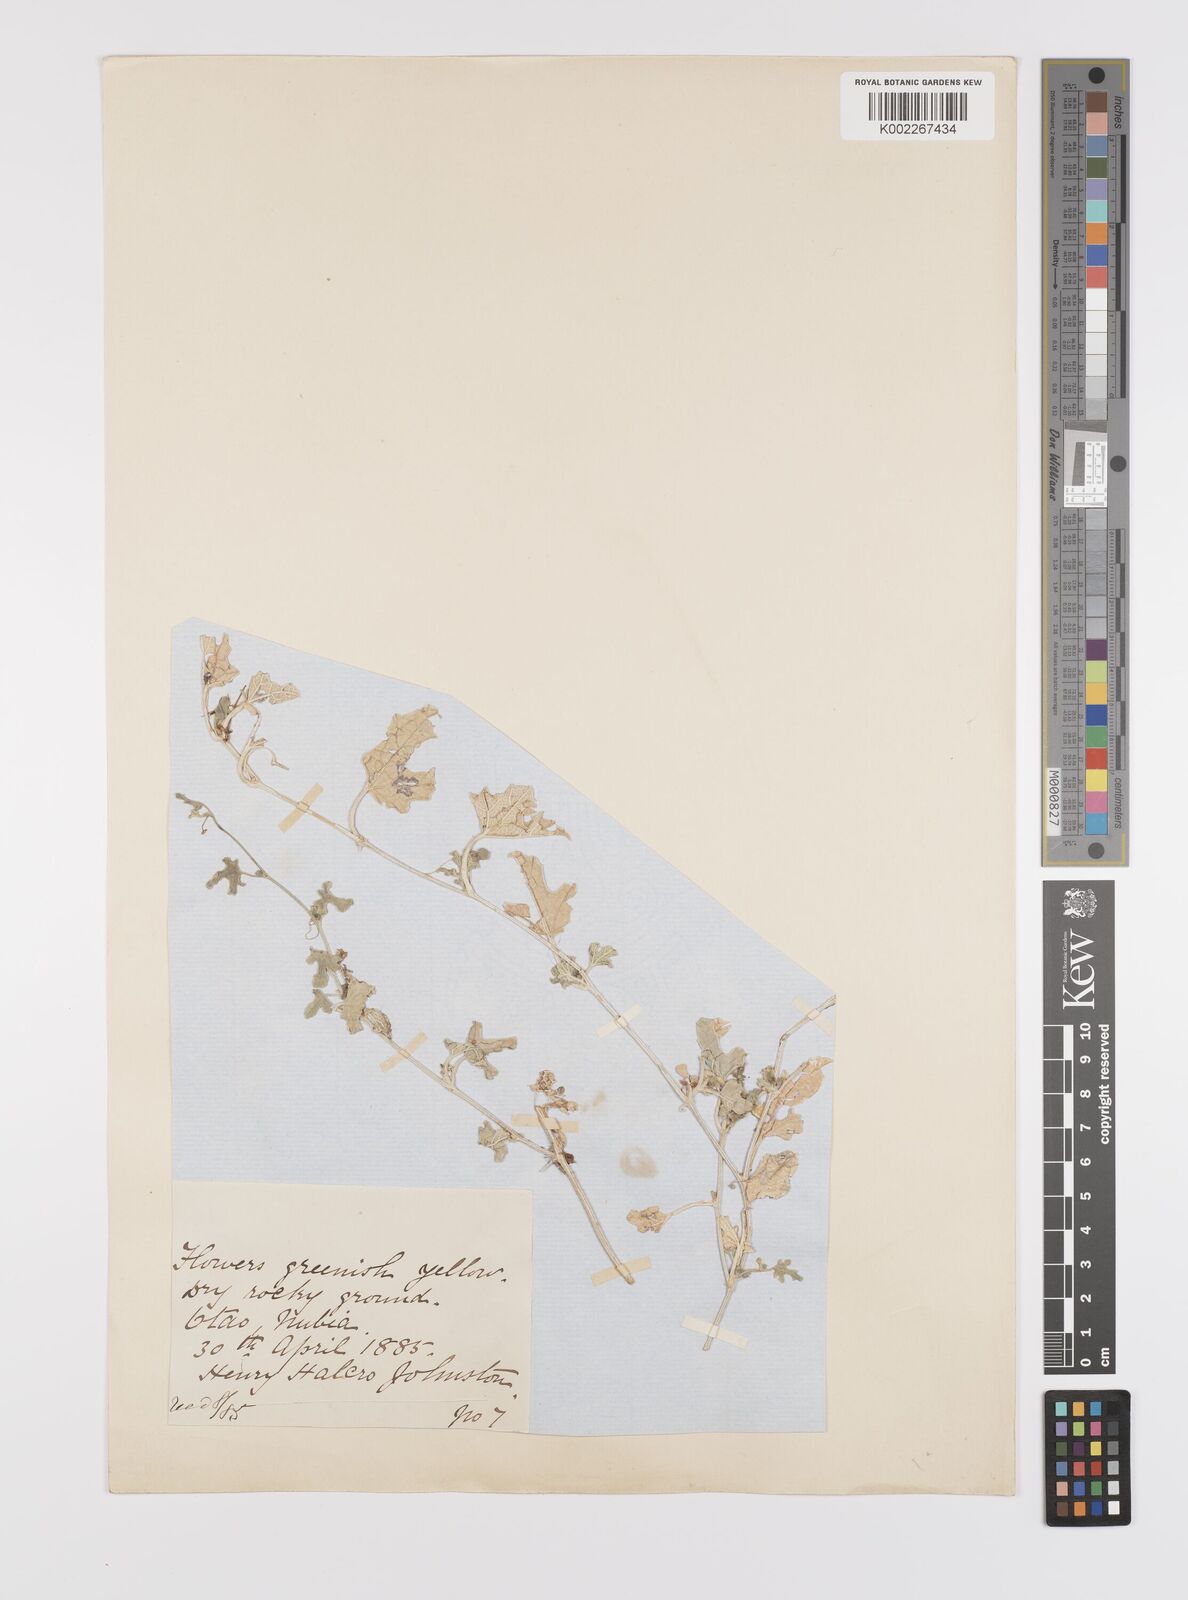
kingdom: Plantae
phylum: Tracheophyta
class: Magnoliopsida
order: Cucurbitales
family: Cucurbitaceae
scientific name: Cucurbitaceae
